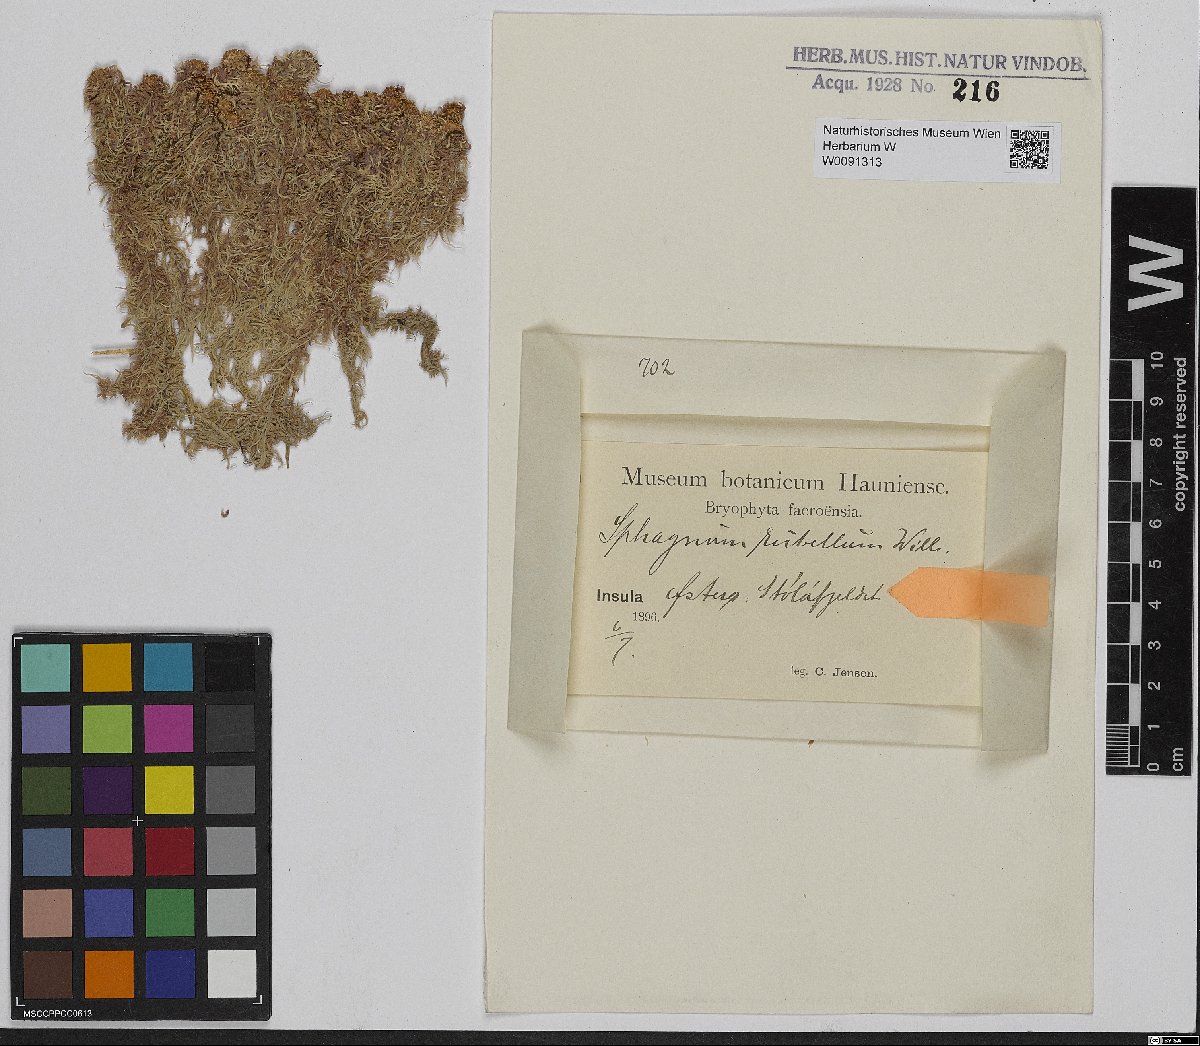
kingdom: Plantae
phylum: Bryophyta
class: Sphagnopsida
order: Sphagnales
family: Sphagnaceae
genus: Sphagnum
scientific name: Sphagnum rubellum
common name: Red peat moss
